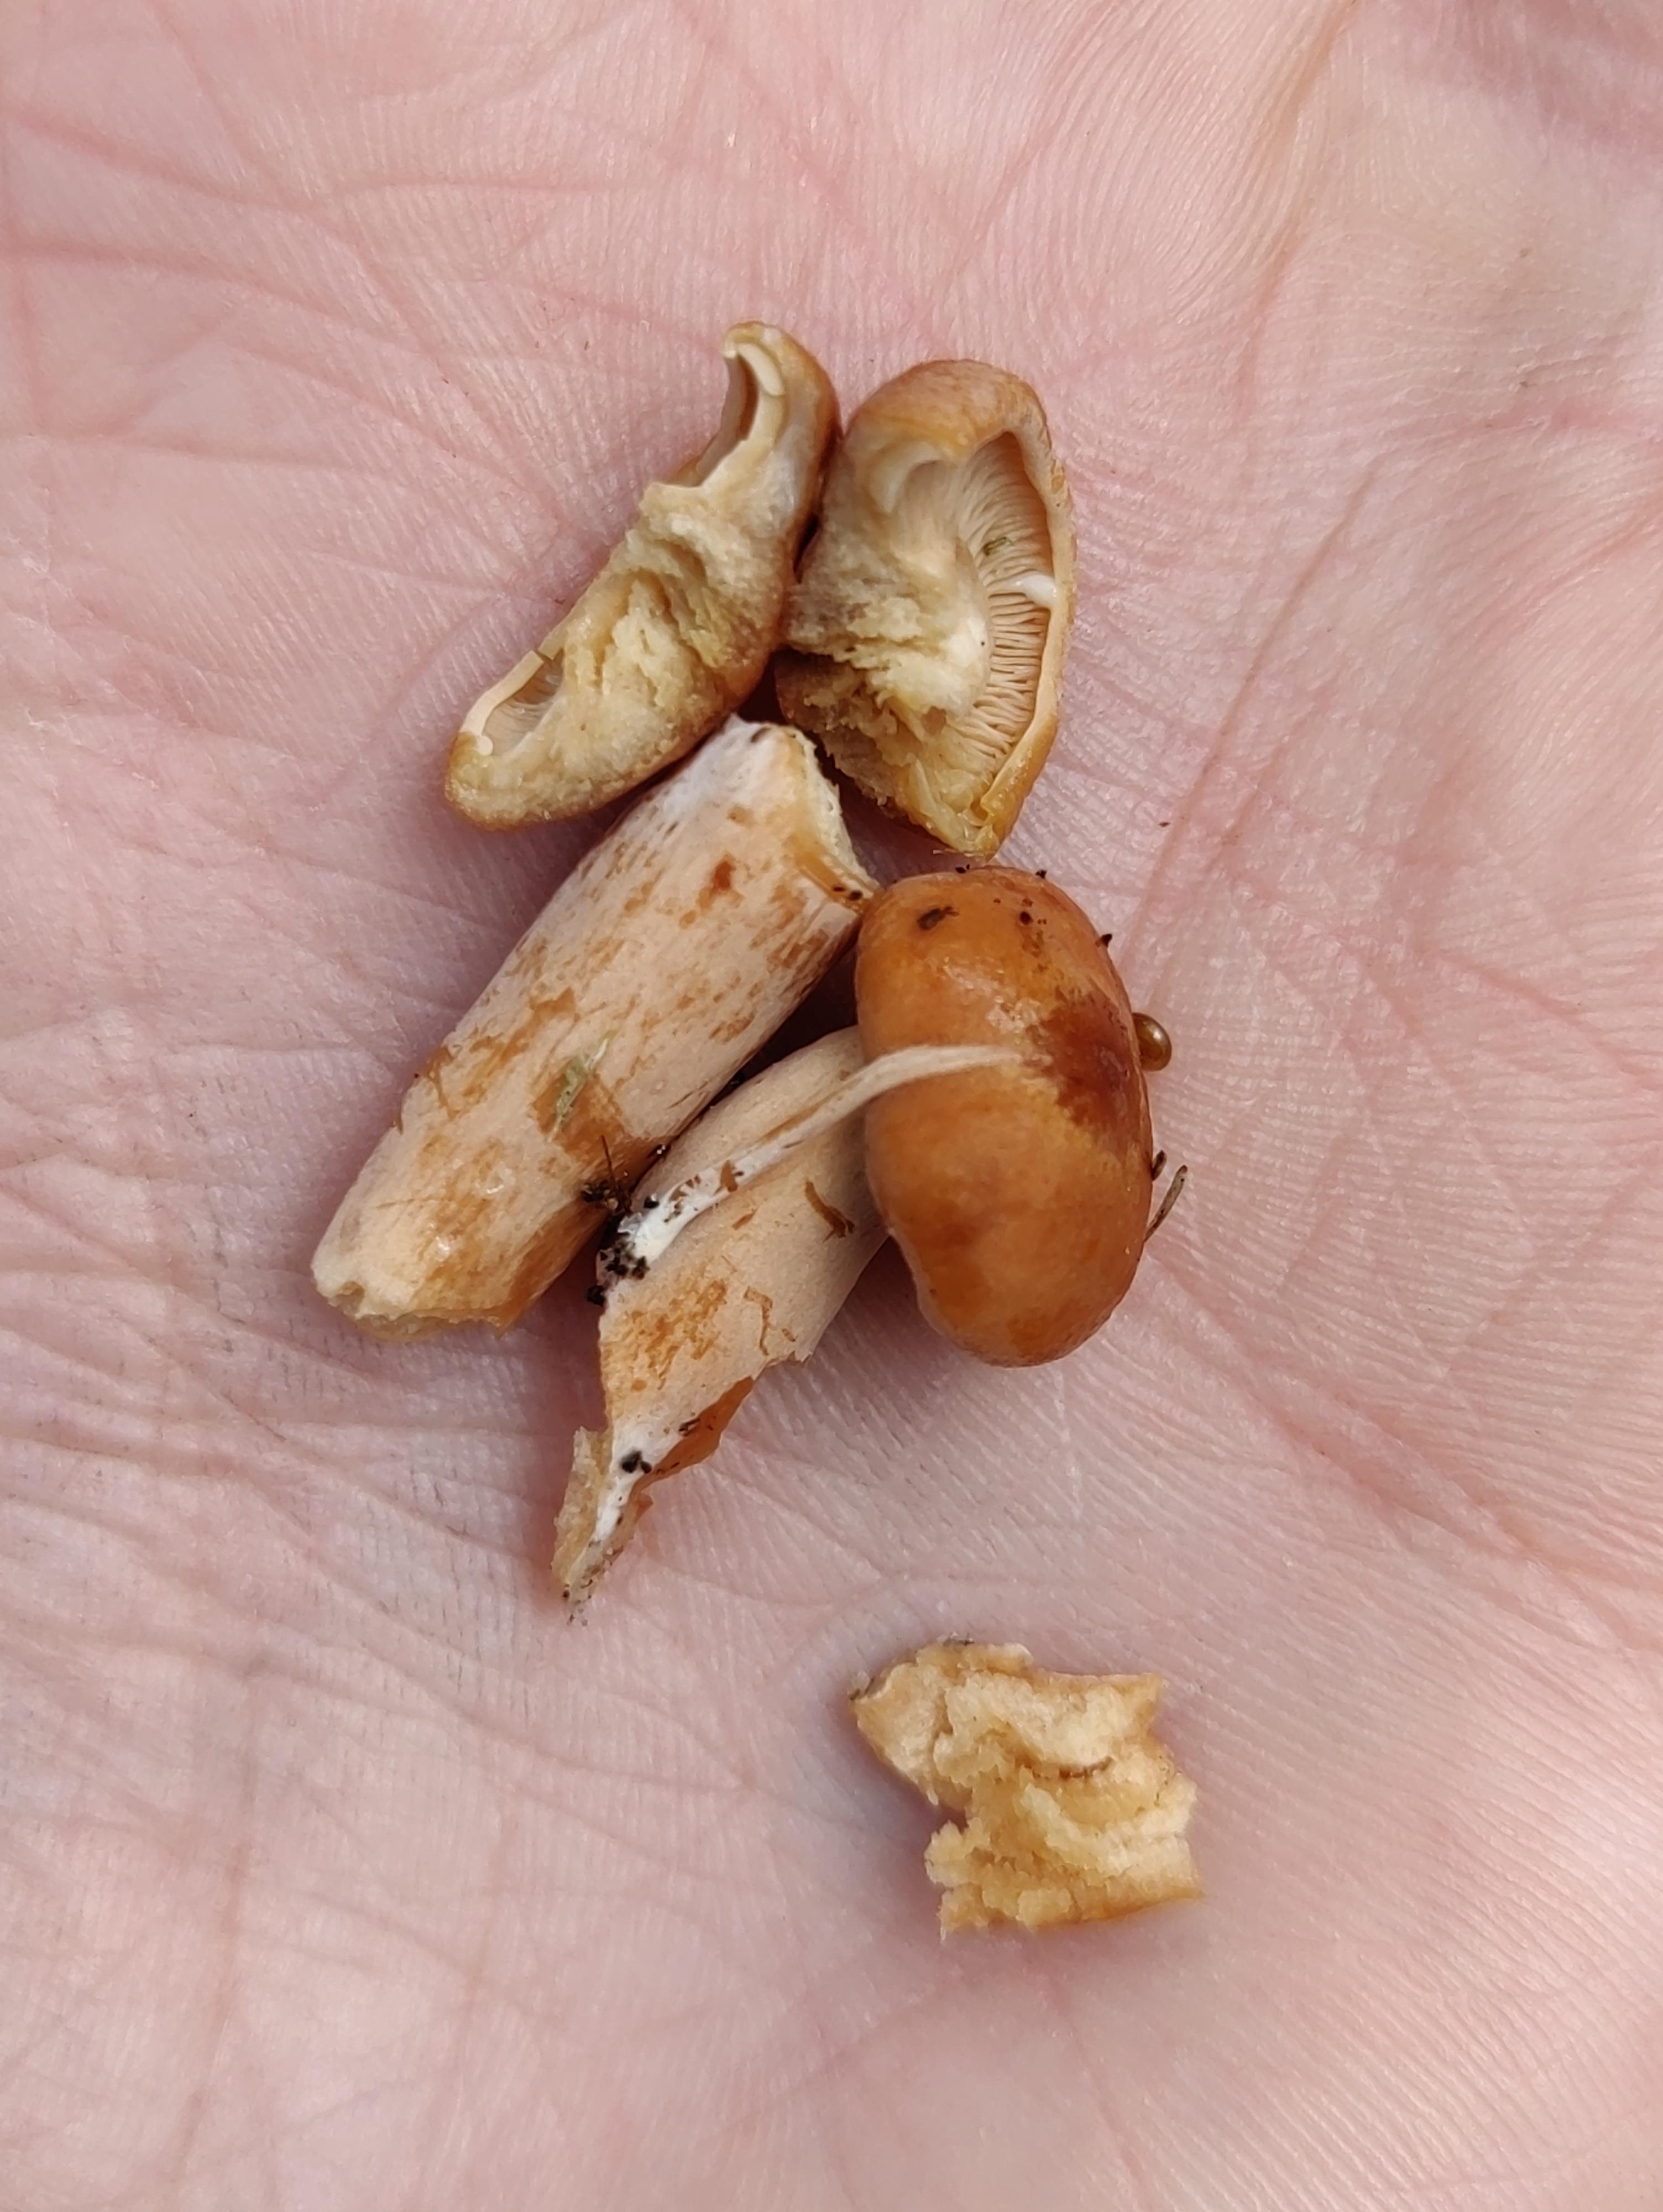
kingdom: Fungi
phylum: Basidiomycota
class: Agaricomycetes
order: Russulales
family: Russulaceae
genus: Lactarius
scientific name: Lactarius
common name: mælkehat
